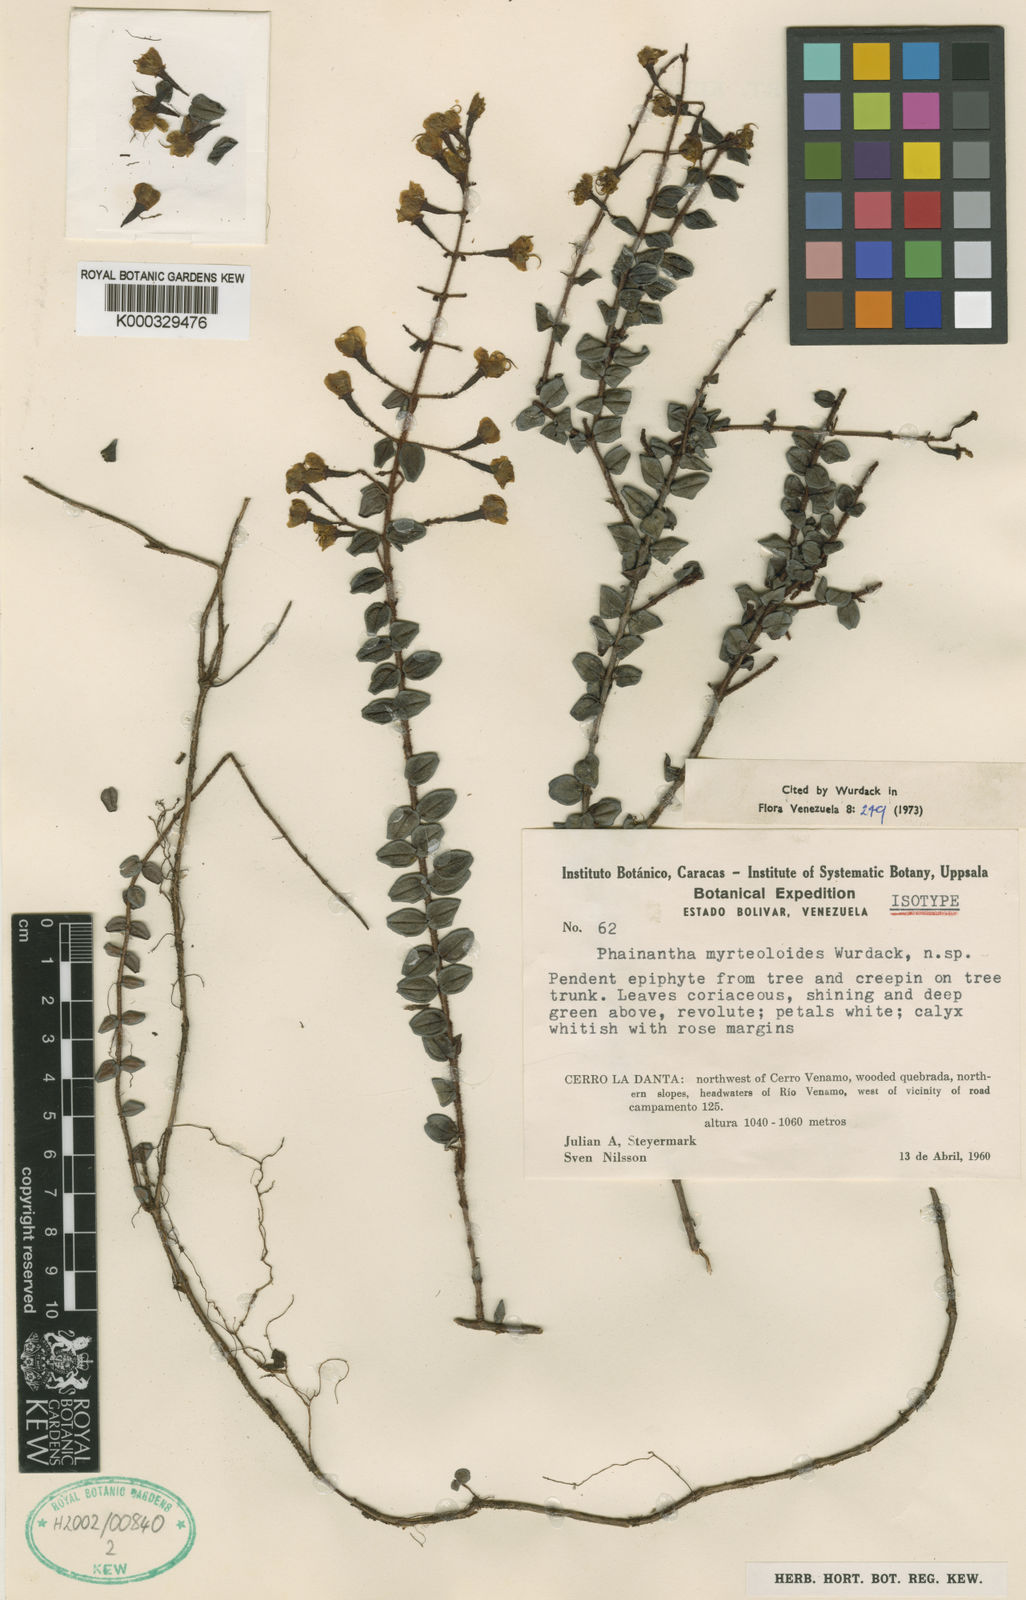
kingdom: Plantae
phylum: Tracheophyta
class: Magnoliopsida
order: Myrtales
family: Melastomataceae
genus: Phainantha
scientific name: Phainantha myrteoloides
